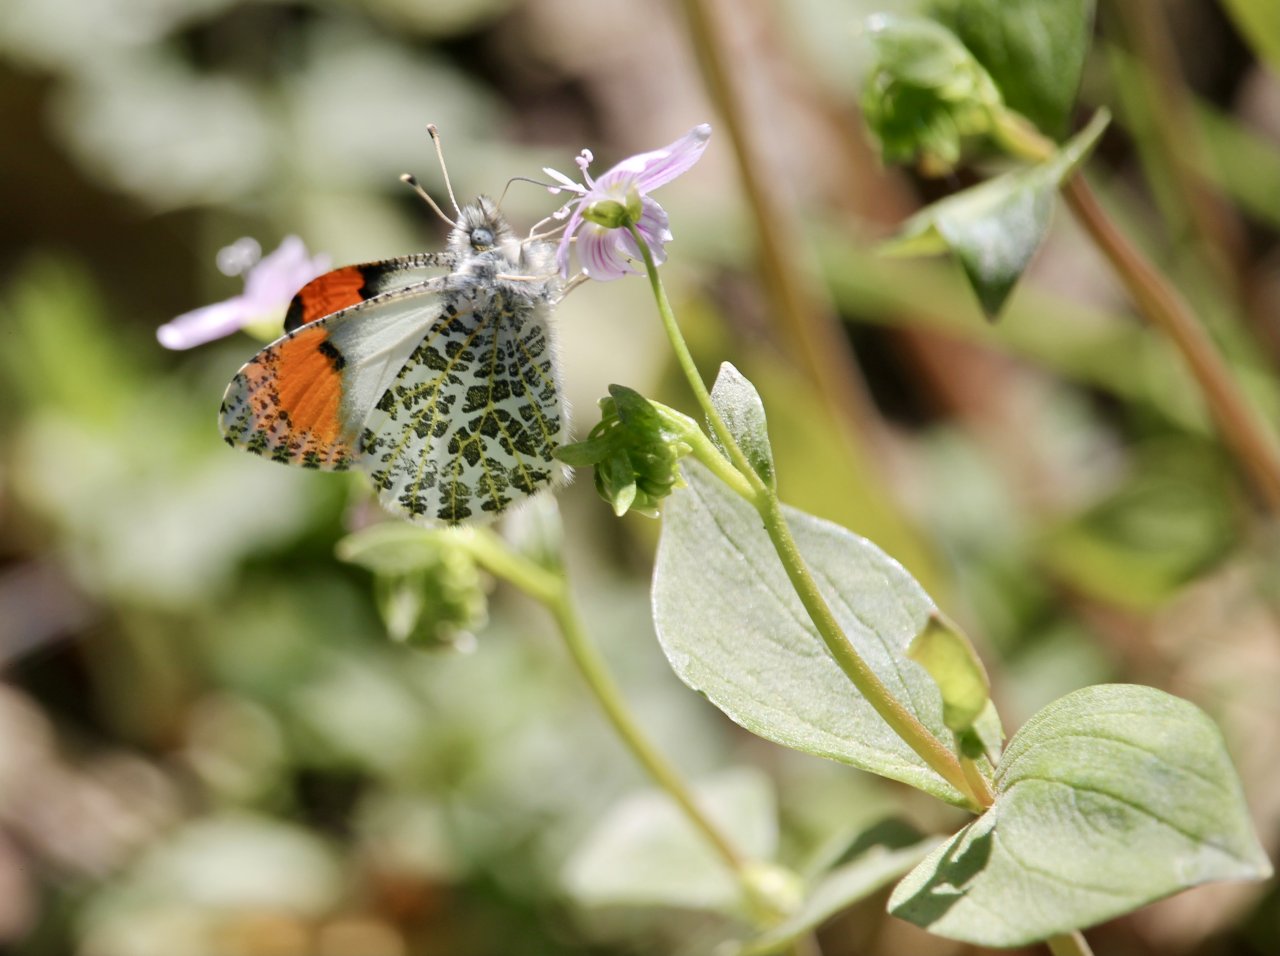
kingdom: Animalia
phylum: Arthropoda
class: Insecta
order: Lepidoptera
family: Pieridae
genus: Anthocharis
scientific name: Anthocharis sara
